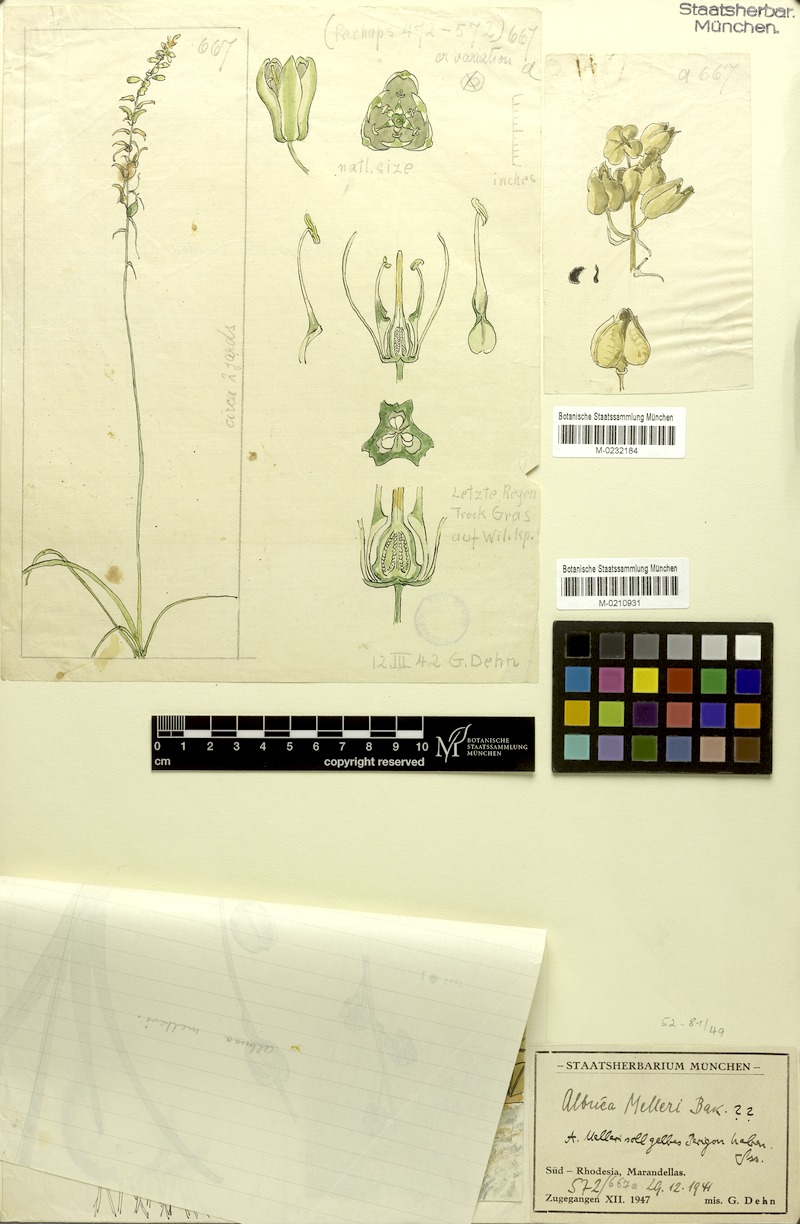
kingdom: Plantae
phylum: Tracheophyta
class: Liliopsida
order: Asparagales
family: Asparagaceae
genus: Albuca
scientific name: Albuca abyssinica
